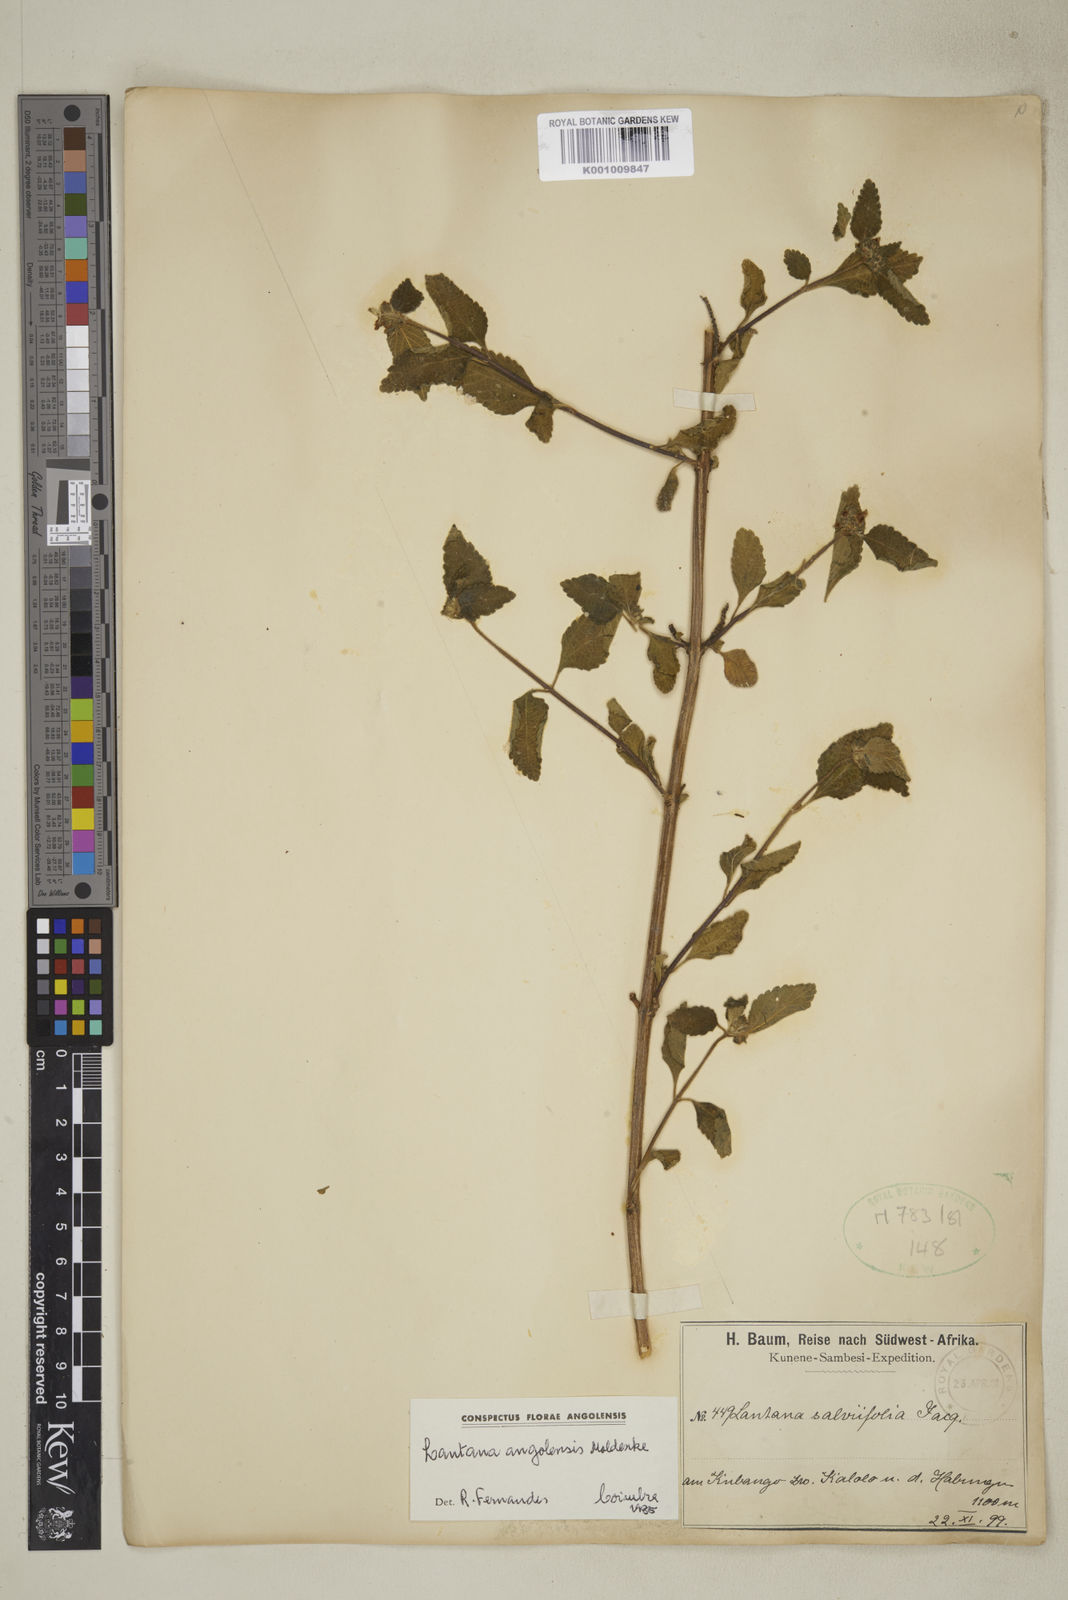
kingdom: Plantae
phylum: Tracheophyta
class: Magnoliopsida
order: Lamiales
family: Verbenaceae
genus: Lantana
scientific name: Lantana angolensis
